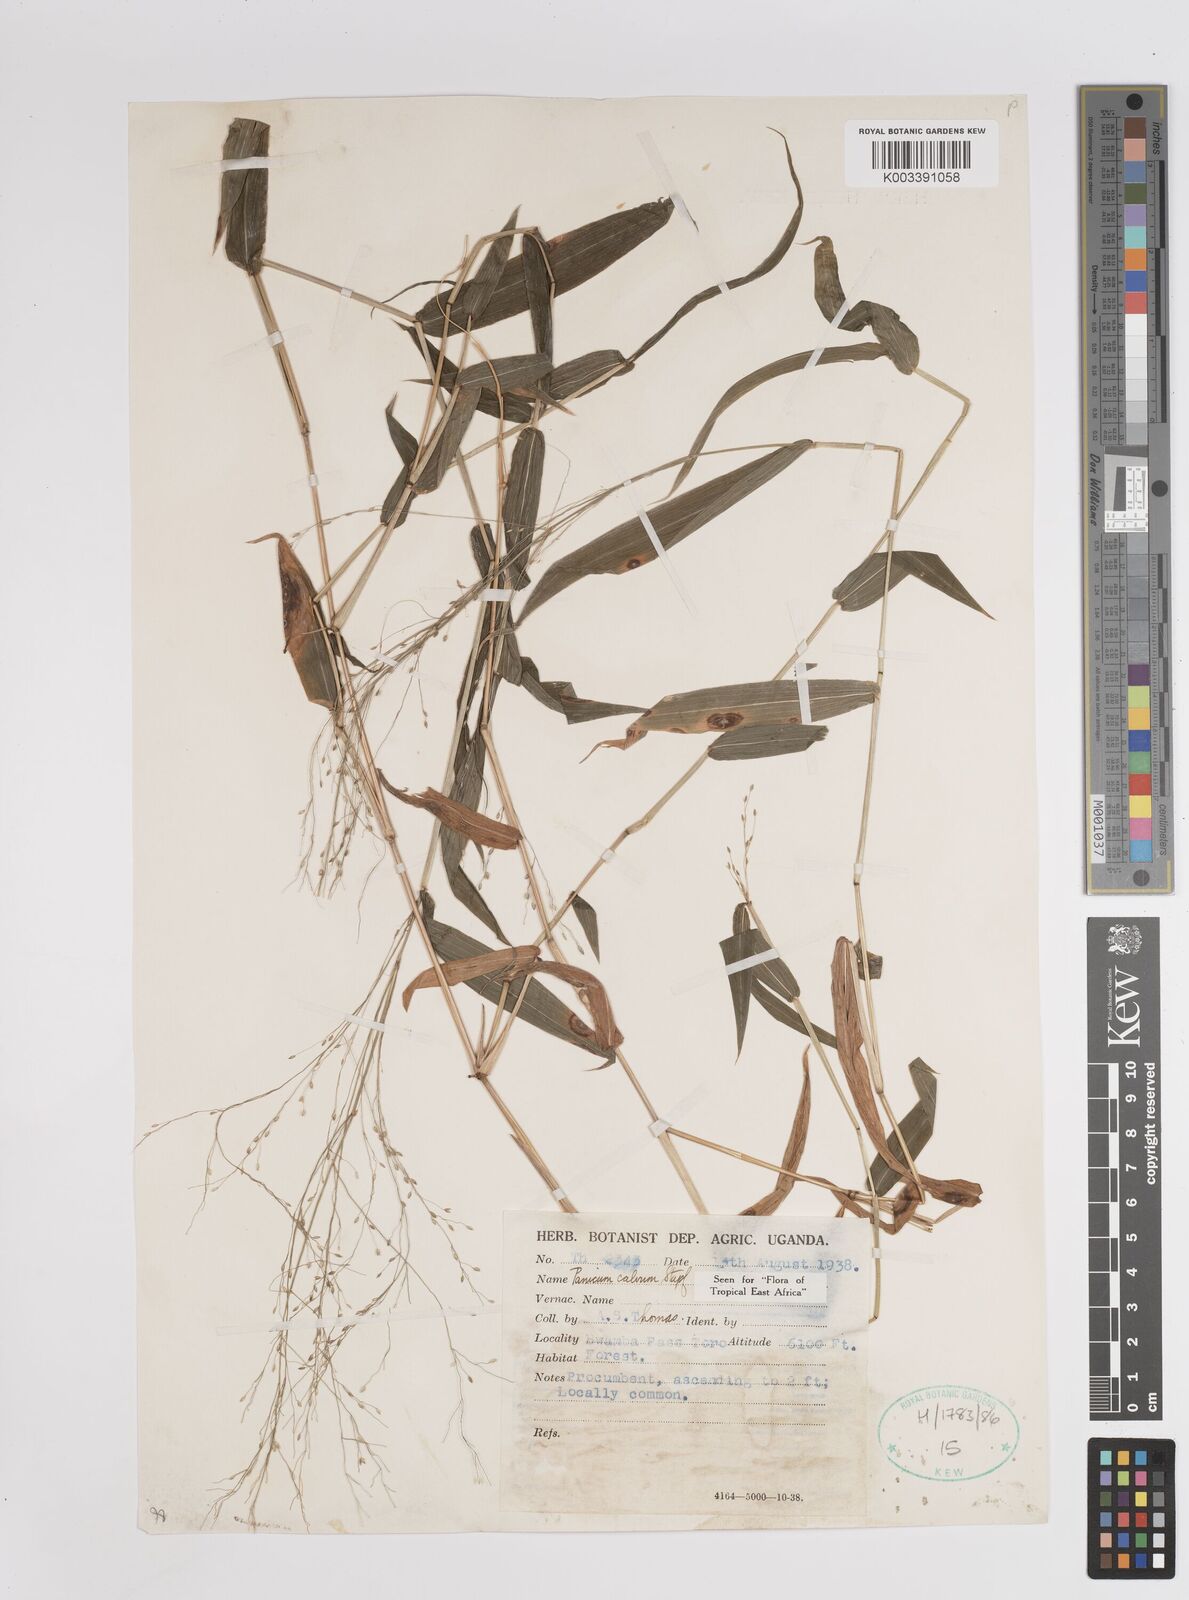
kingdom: Plantae
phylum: Tracheophyta
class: Liliopsida
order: Poales
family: Poaceae
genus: Panicum
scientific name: Panicum calvum
